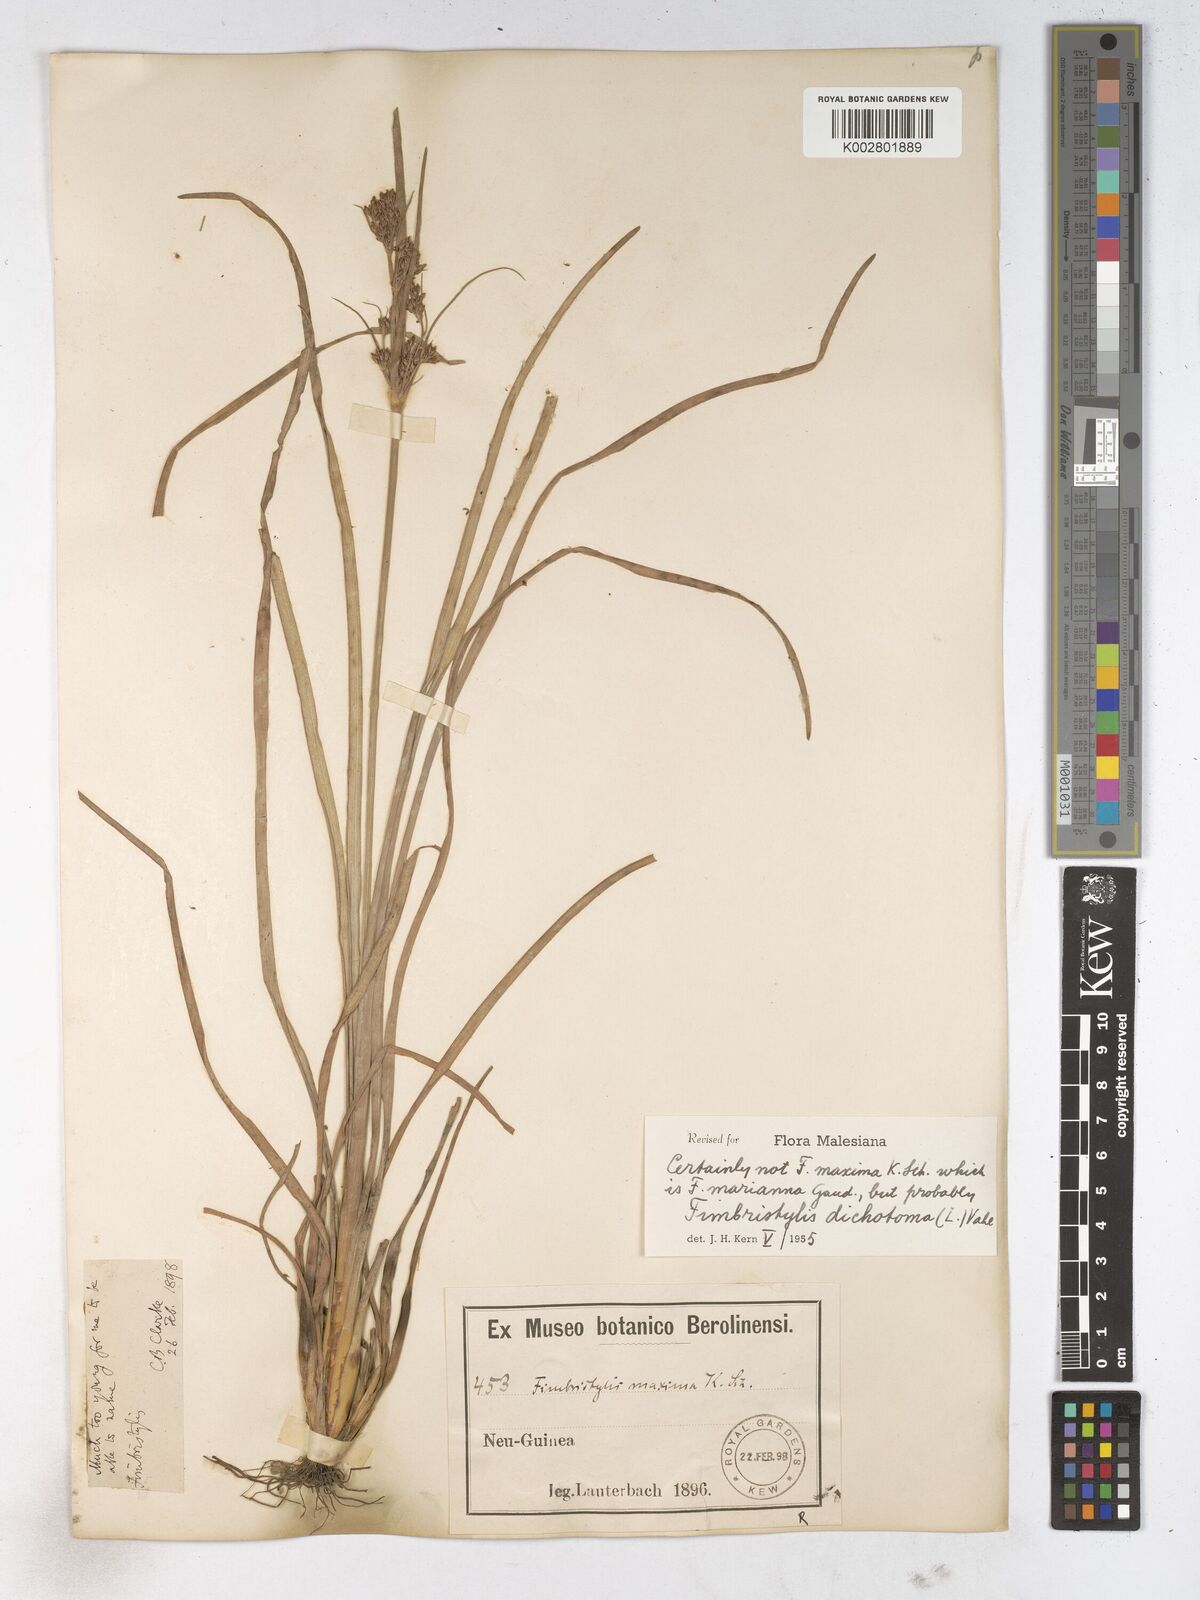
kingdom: Plantae
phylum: Tracheophyta
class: Liliopsida
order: Poales
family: Cyperaceae
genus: Fimbristylis
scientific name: Fimbristylis dichotoma
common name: Forked fimbry
